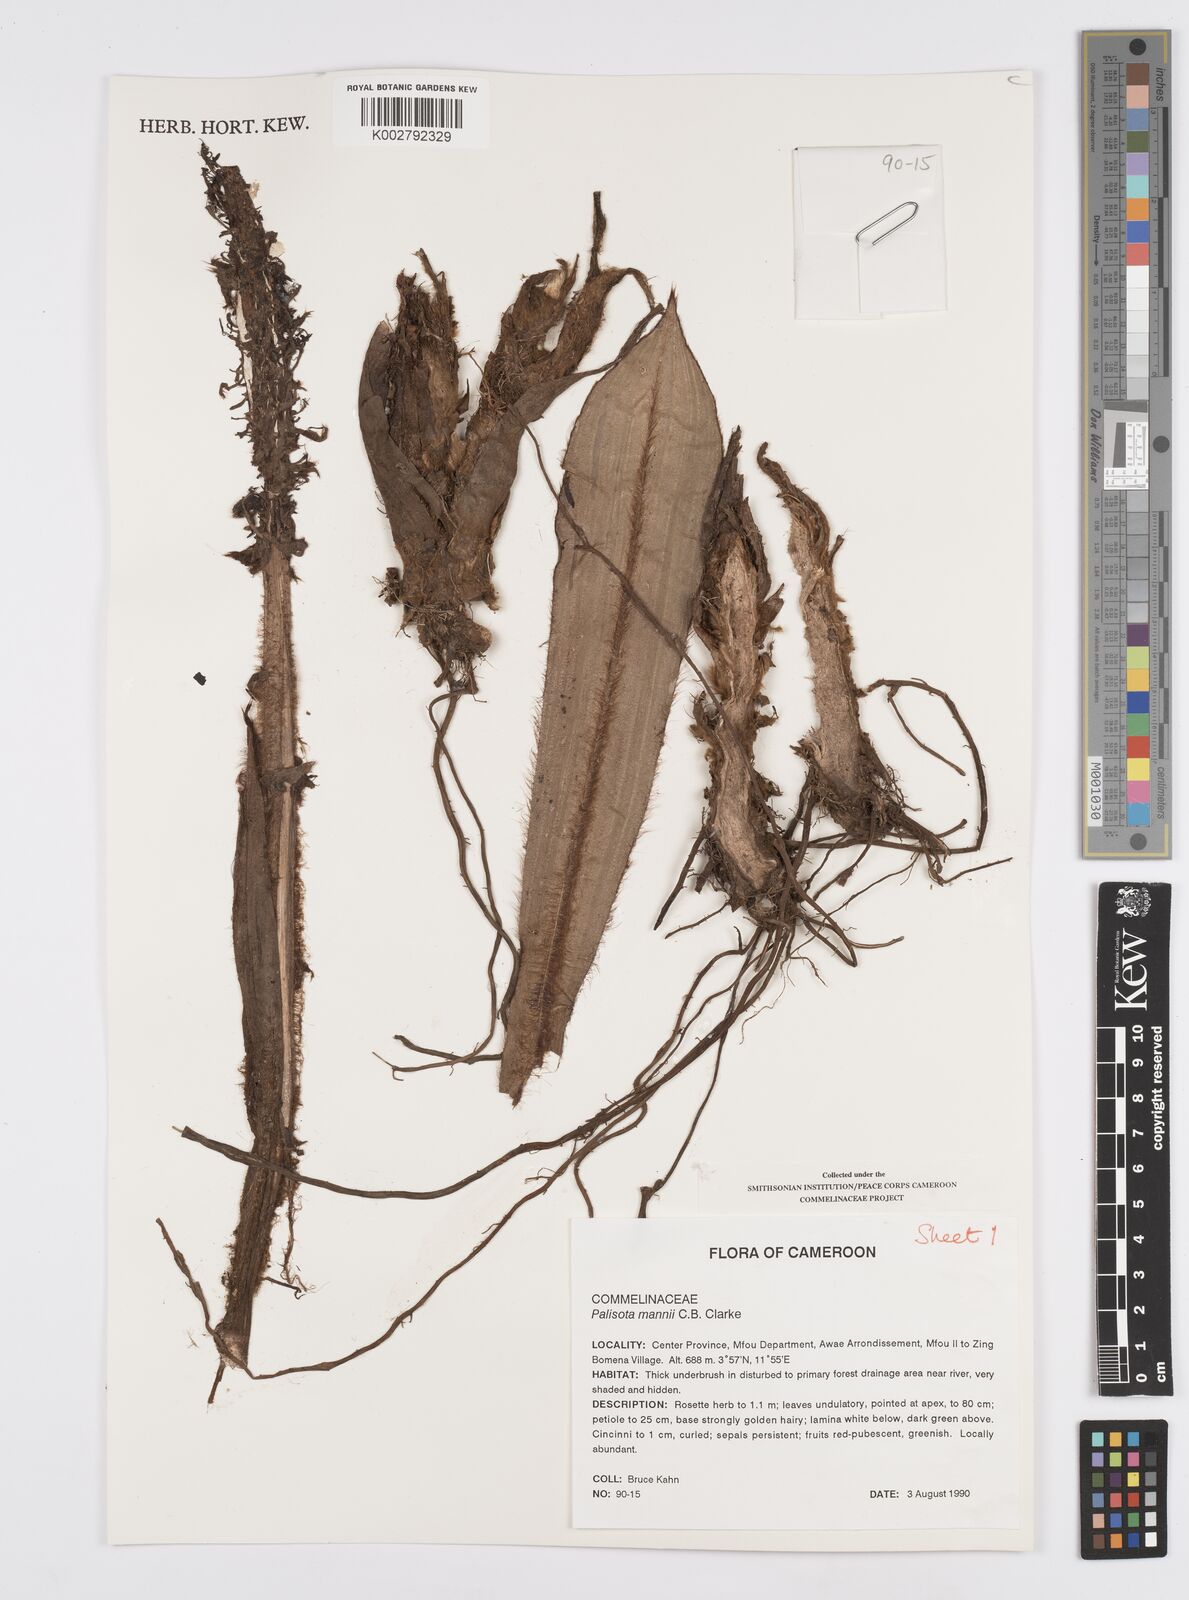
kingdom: Plantae
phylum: Tracheophyta
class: Liliopsida
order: Commelinales
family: Commelinaceae
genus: Palisota
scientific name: Palisota mannii
